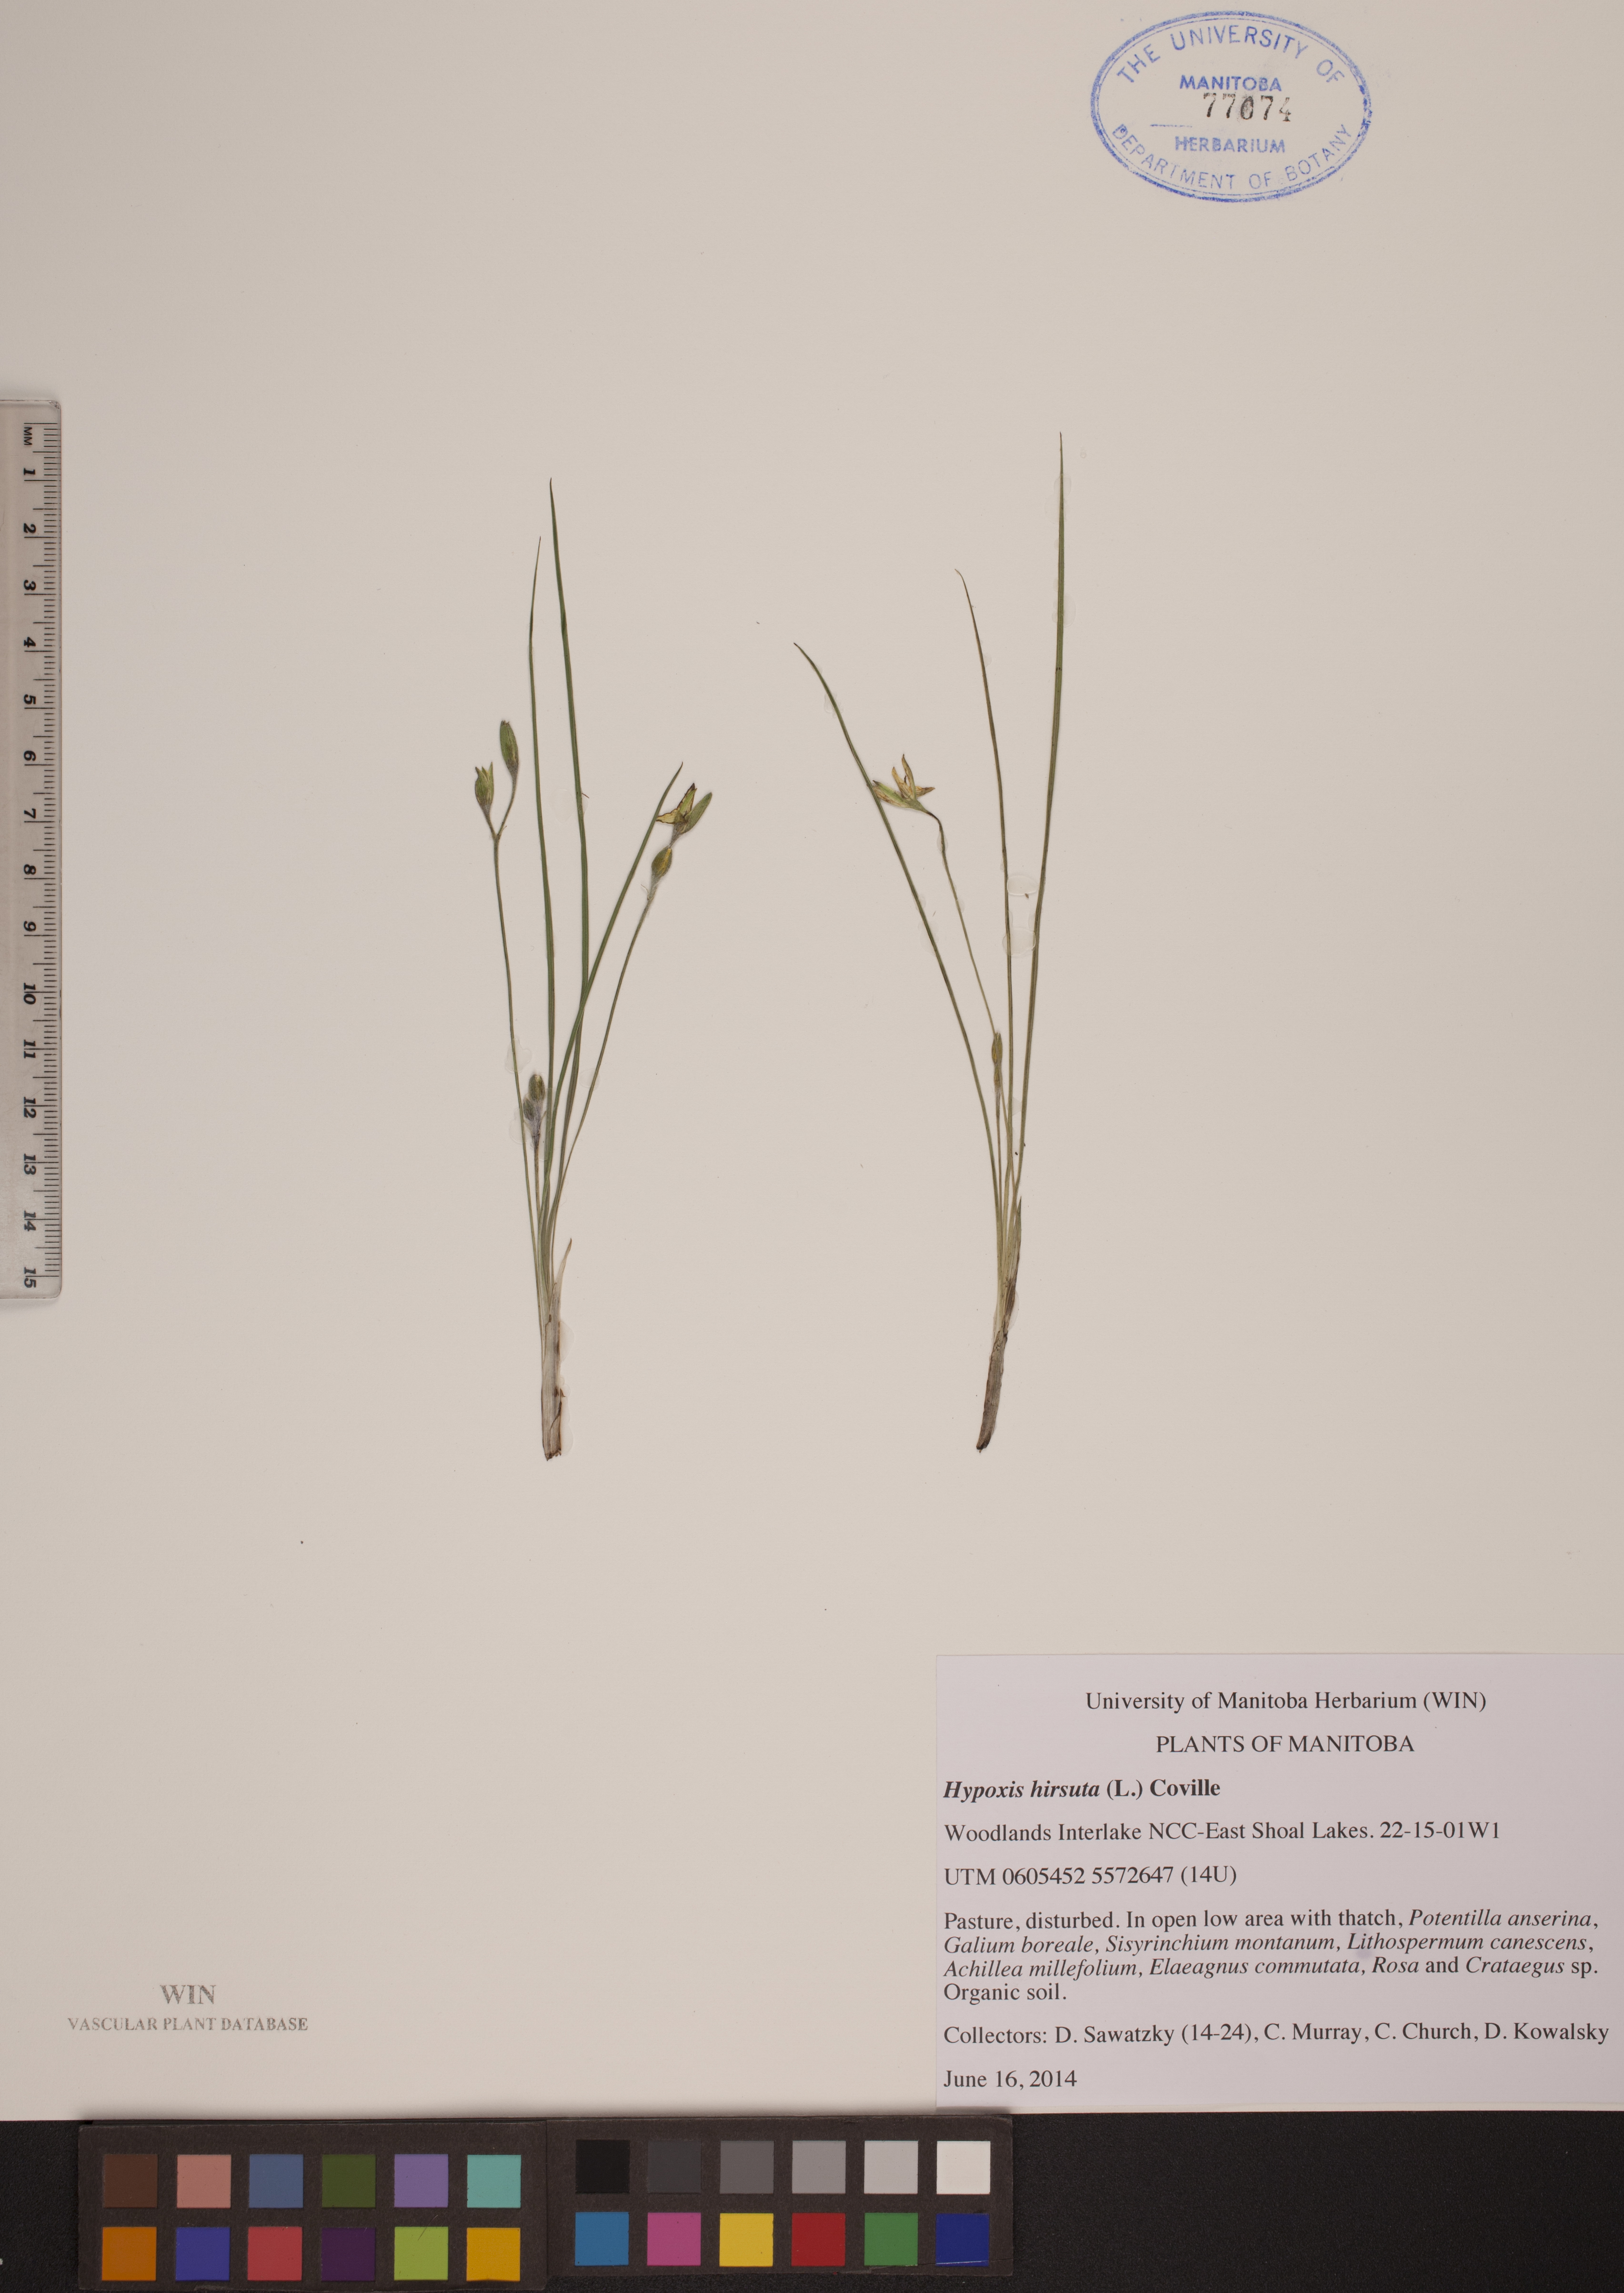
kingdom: Plantae
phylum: Tracheophyta
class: Liliopsida
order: Asparagales
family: Hypoxidaceae
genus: Hypoxis
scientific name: Hypoxis hirsuta
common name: Common goldstar
